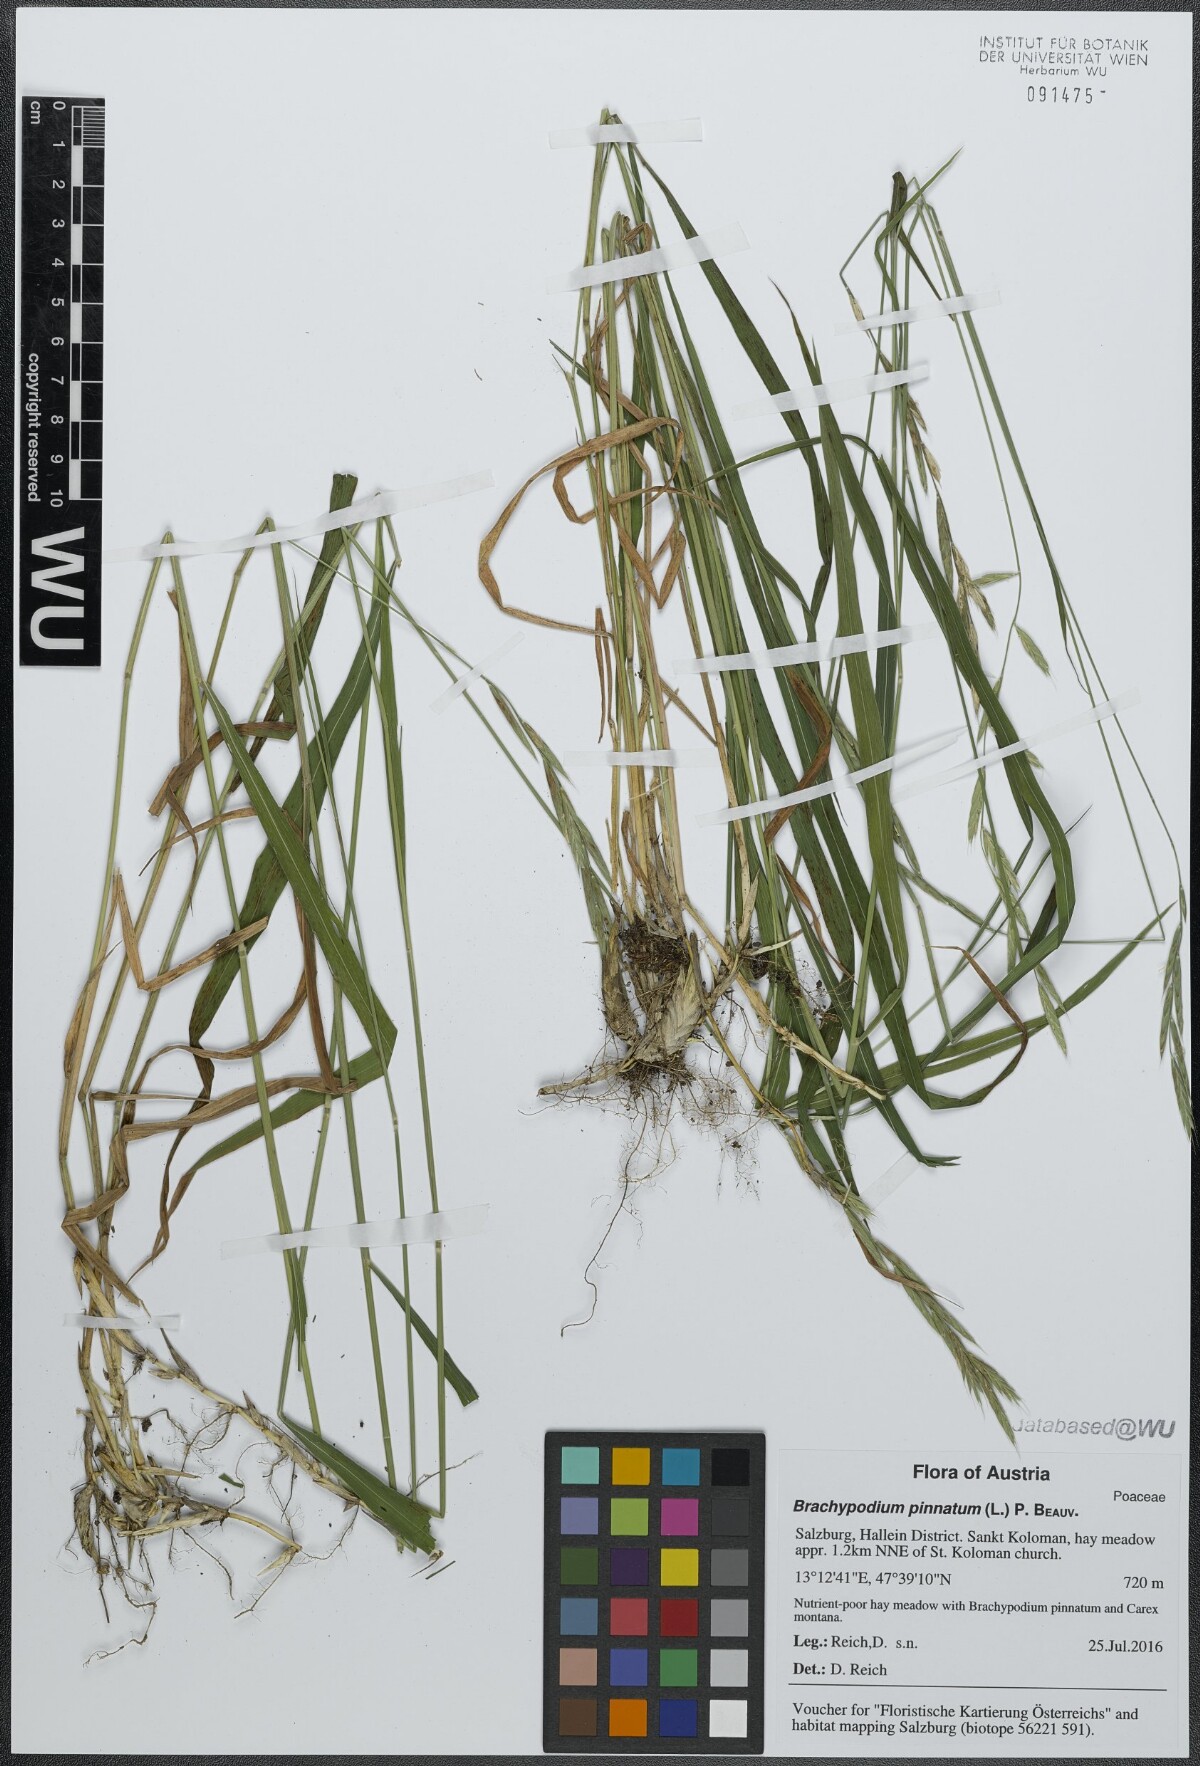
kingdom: Plantae
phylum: Tracheophyta
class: Liliopsida
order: Poales
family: Poaceae
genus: Brachypodium
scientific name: Brachypodium pinnatum
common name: Tor grass
